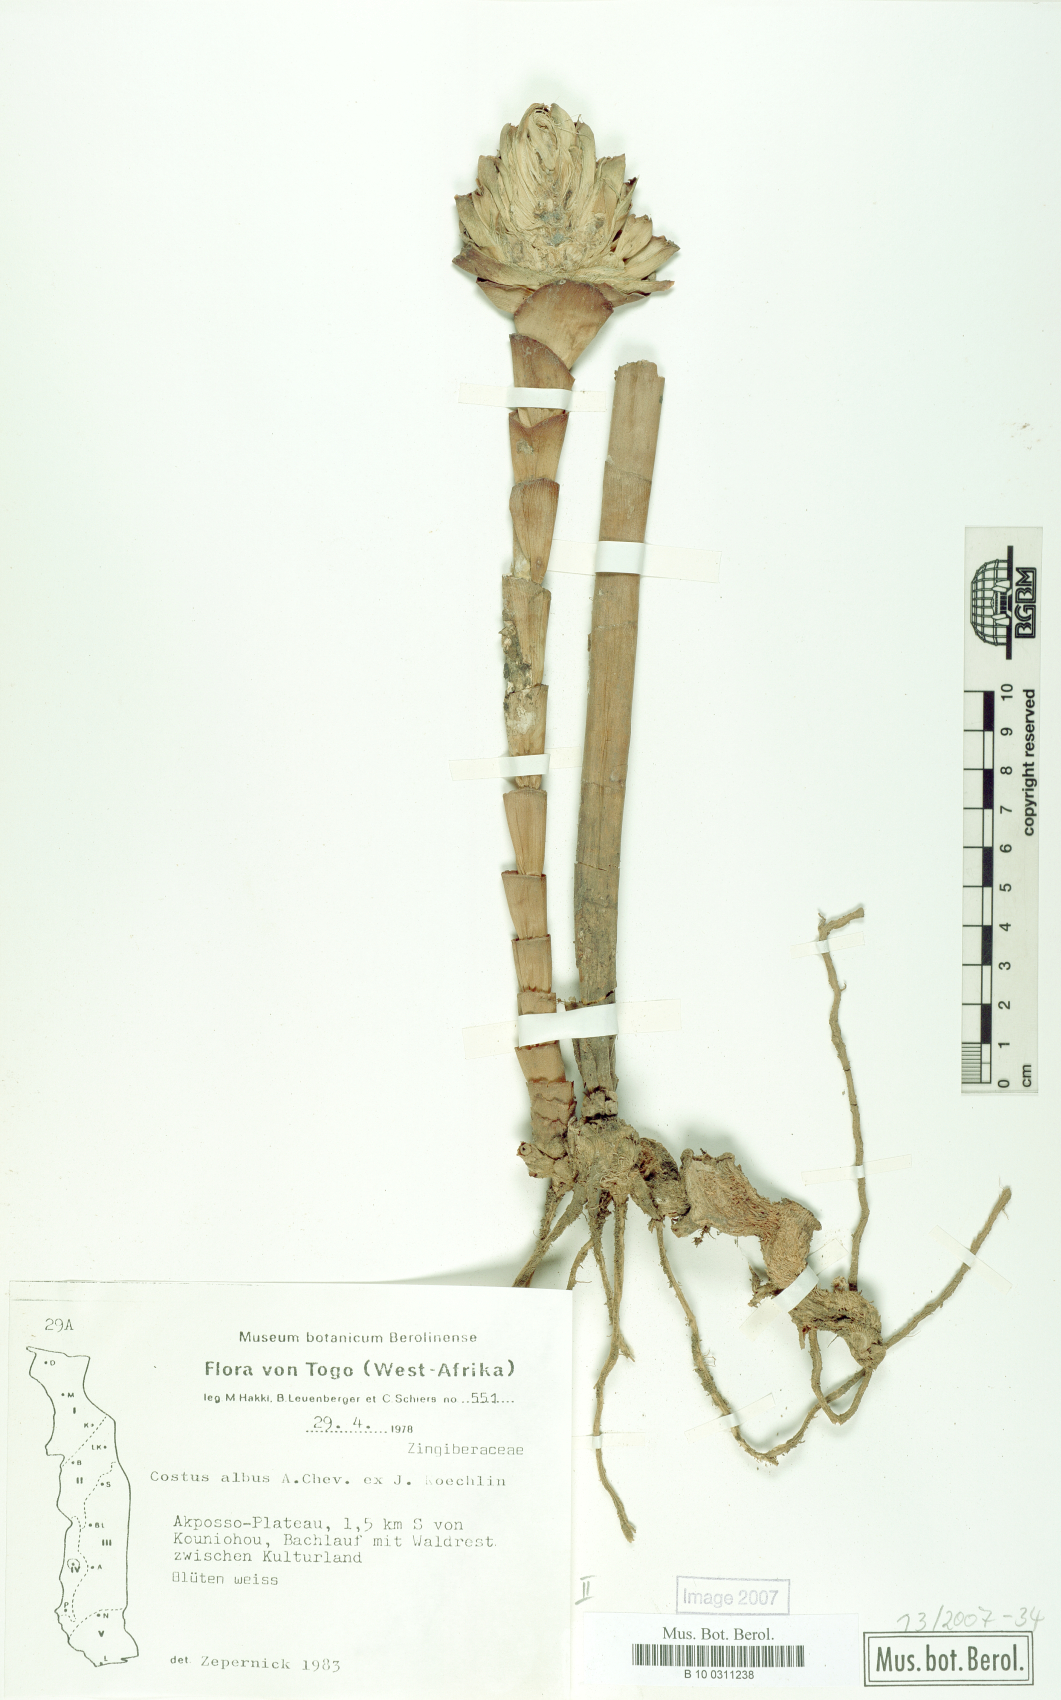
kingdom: Plantae
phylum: Tracheophyta
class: Liliopsida
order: Zingiberales
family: Costaceae
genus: Costus
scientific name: Costus dubius
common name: Costus
